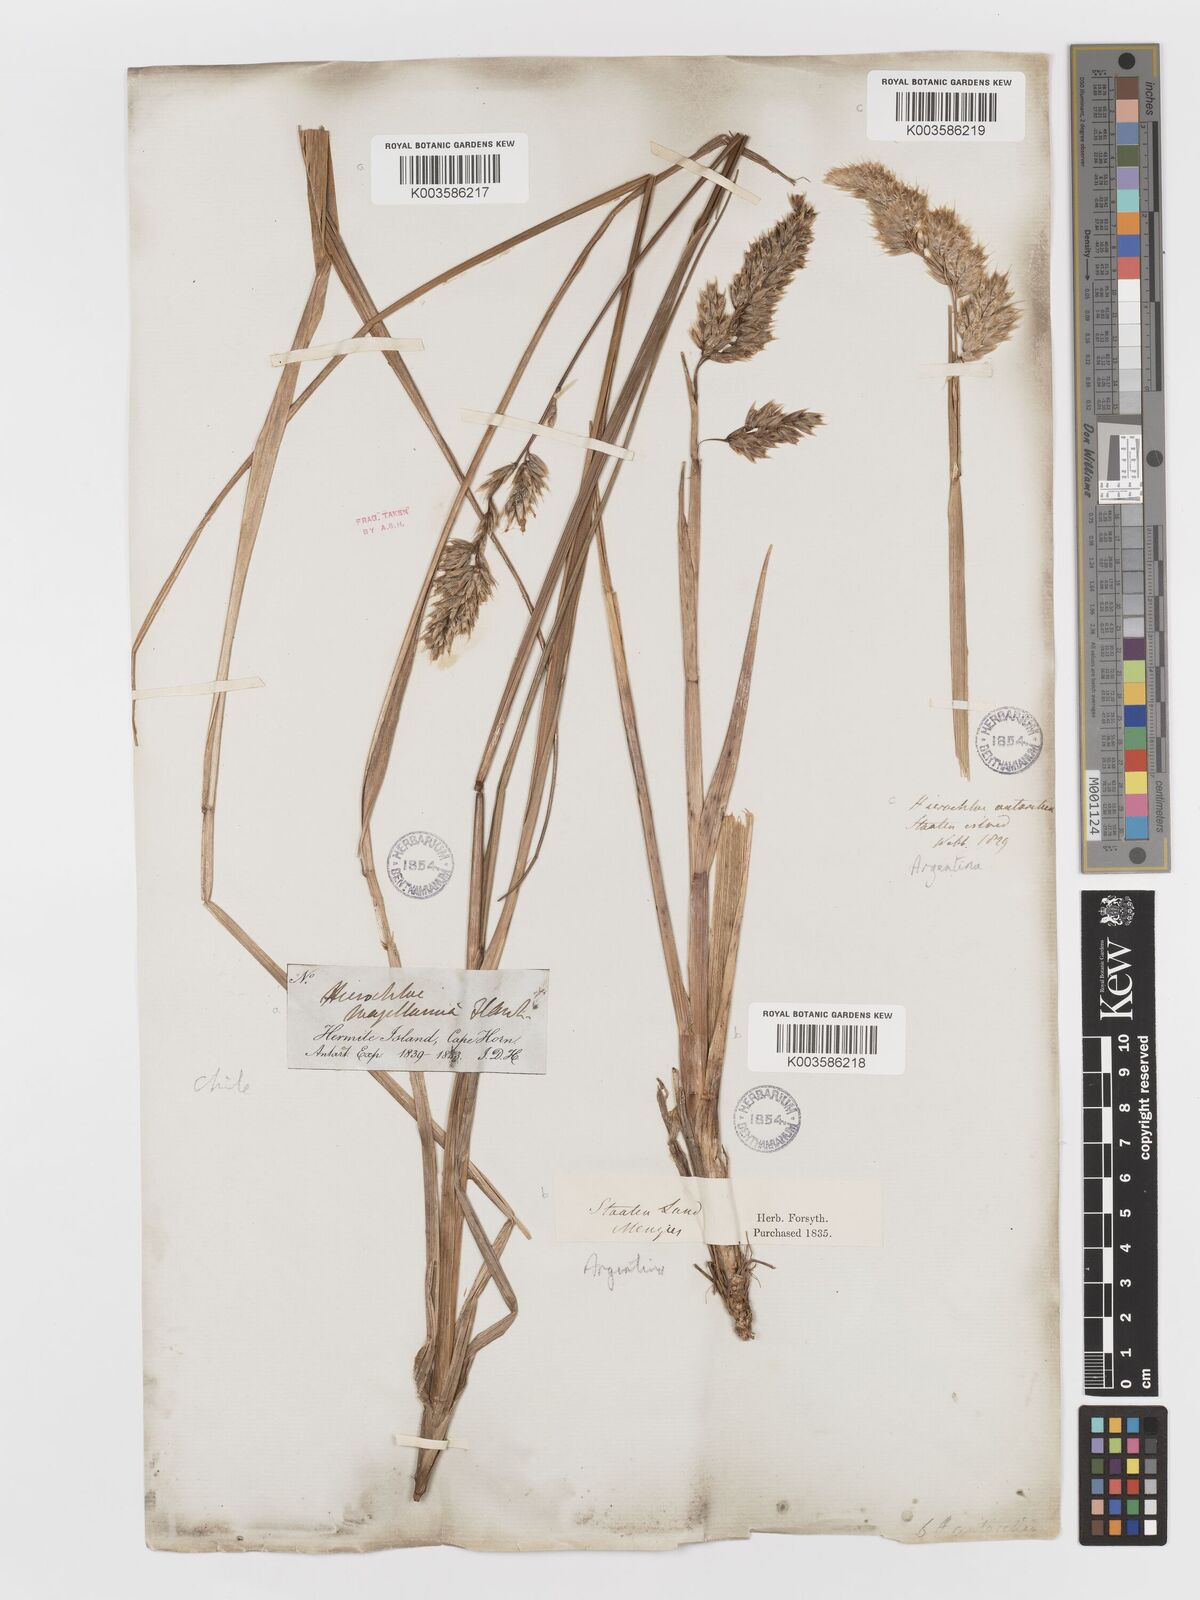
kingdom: Plantae
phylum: Tracheophyta
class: Liliopsida
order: Poales
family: Poaceae
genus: Anthoxanthum
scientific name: Anthoxanthum redolens
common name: Sweet holy grass
